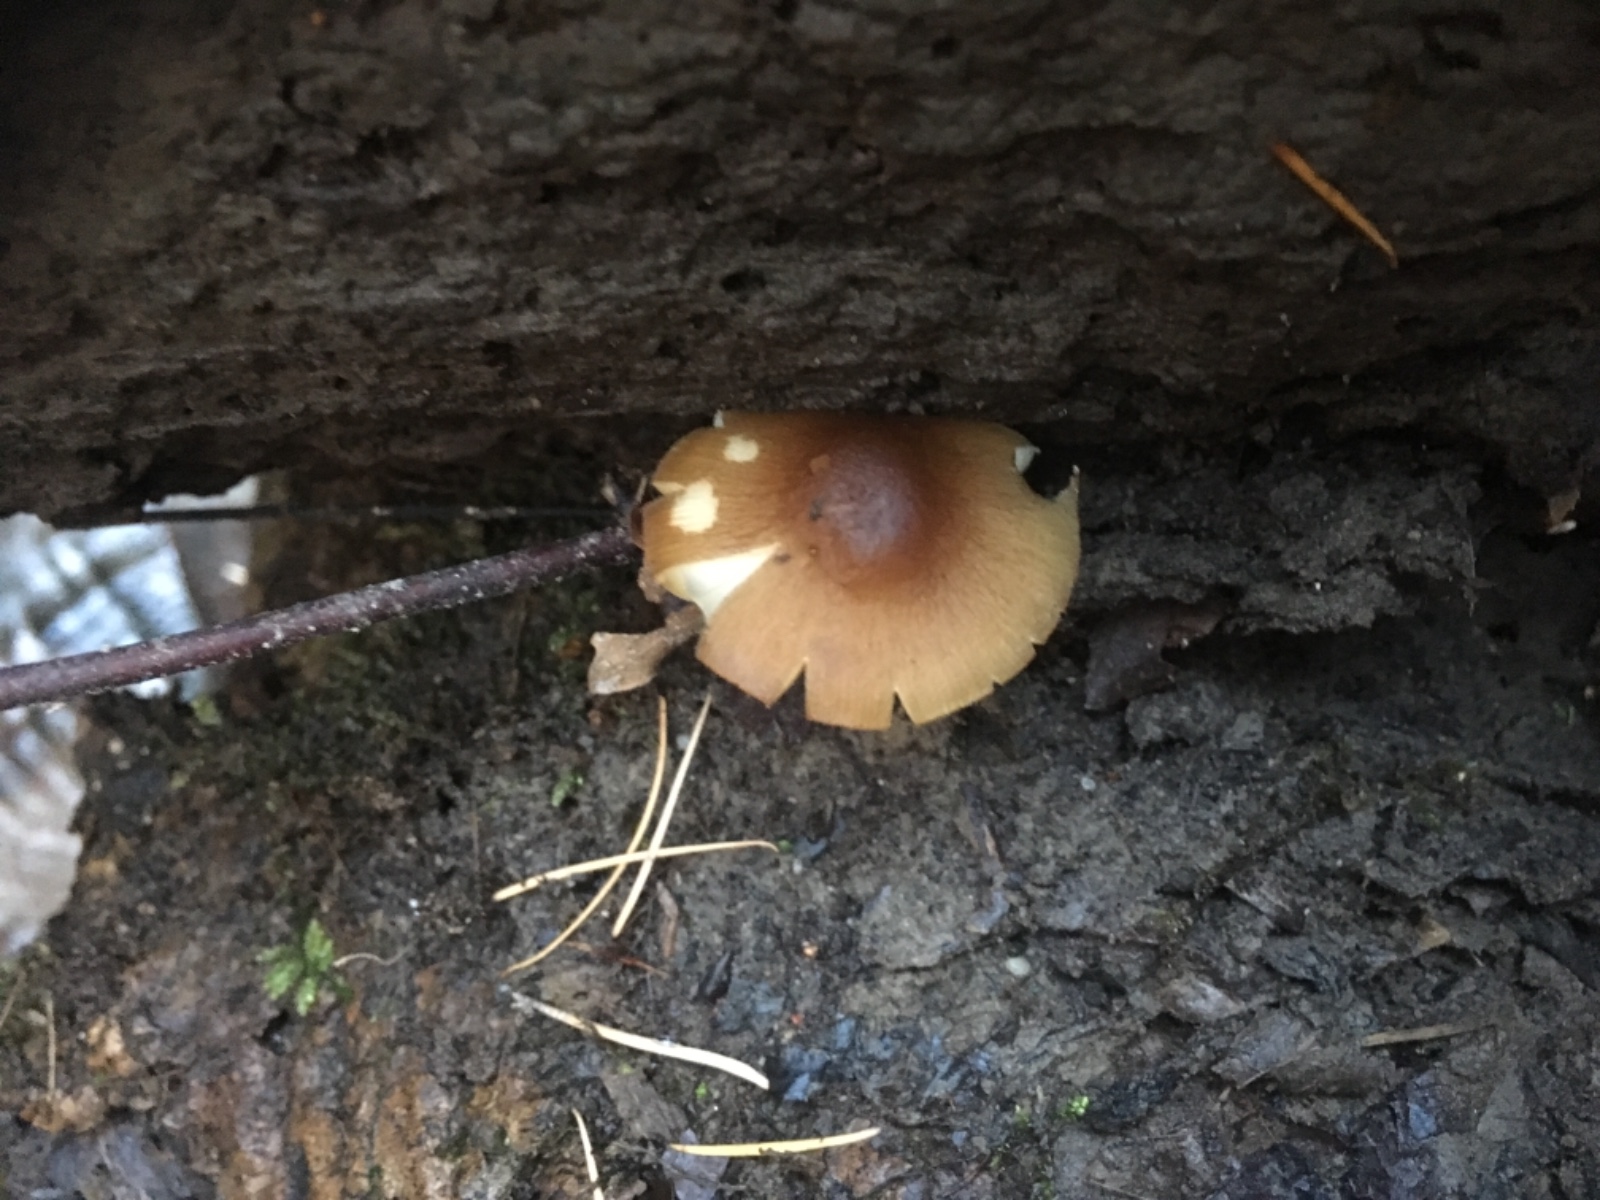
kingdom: Fungi
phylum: Basidiomycota
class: Agaricomycetes
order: Agaricales
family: Pluteaceae
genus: Pluteus
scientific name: Pluteus
